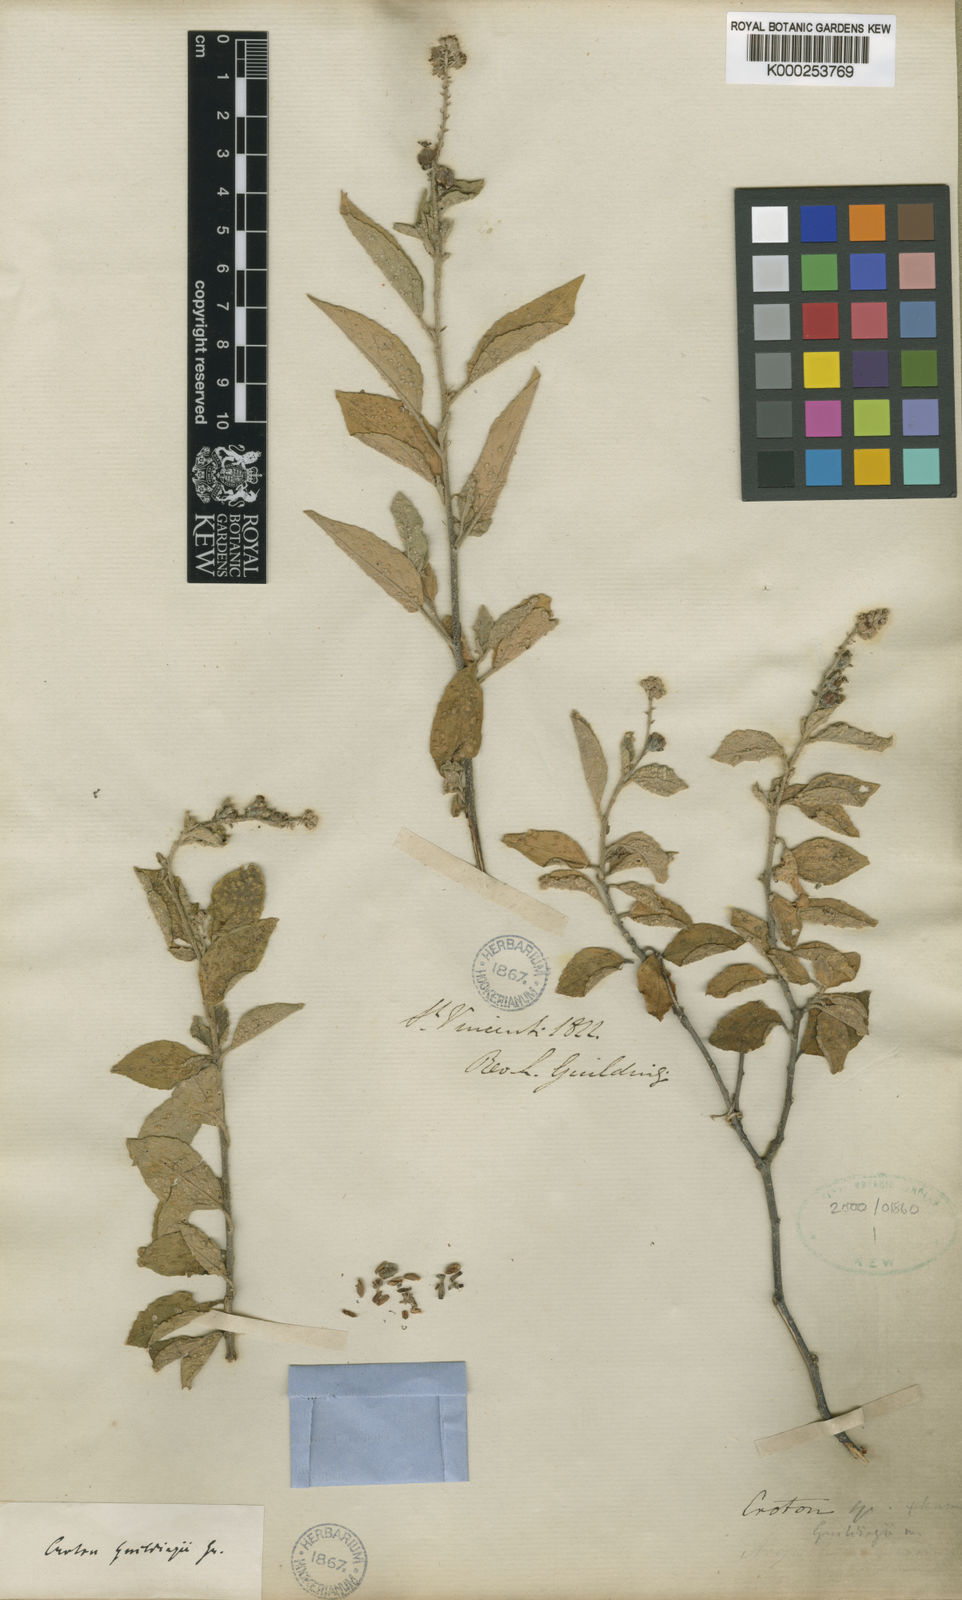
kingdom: Plantae
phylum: Tracheophyta
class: Magnoliopsida
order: Malpighiales
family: Euphorbiaceae
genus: Croton
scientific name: Croton suavis
